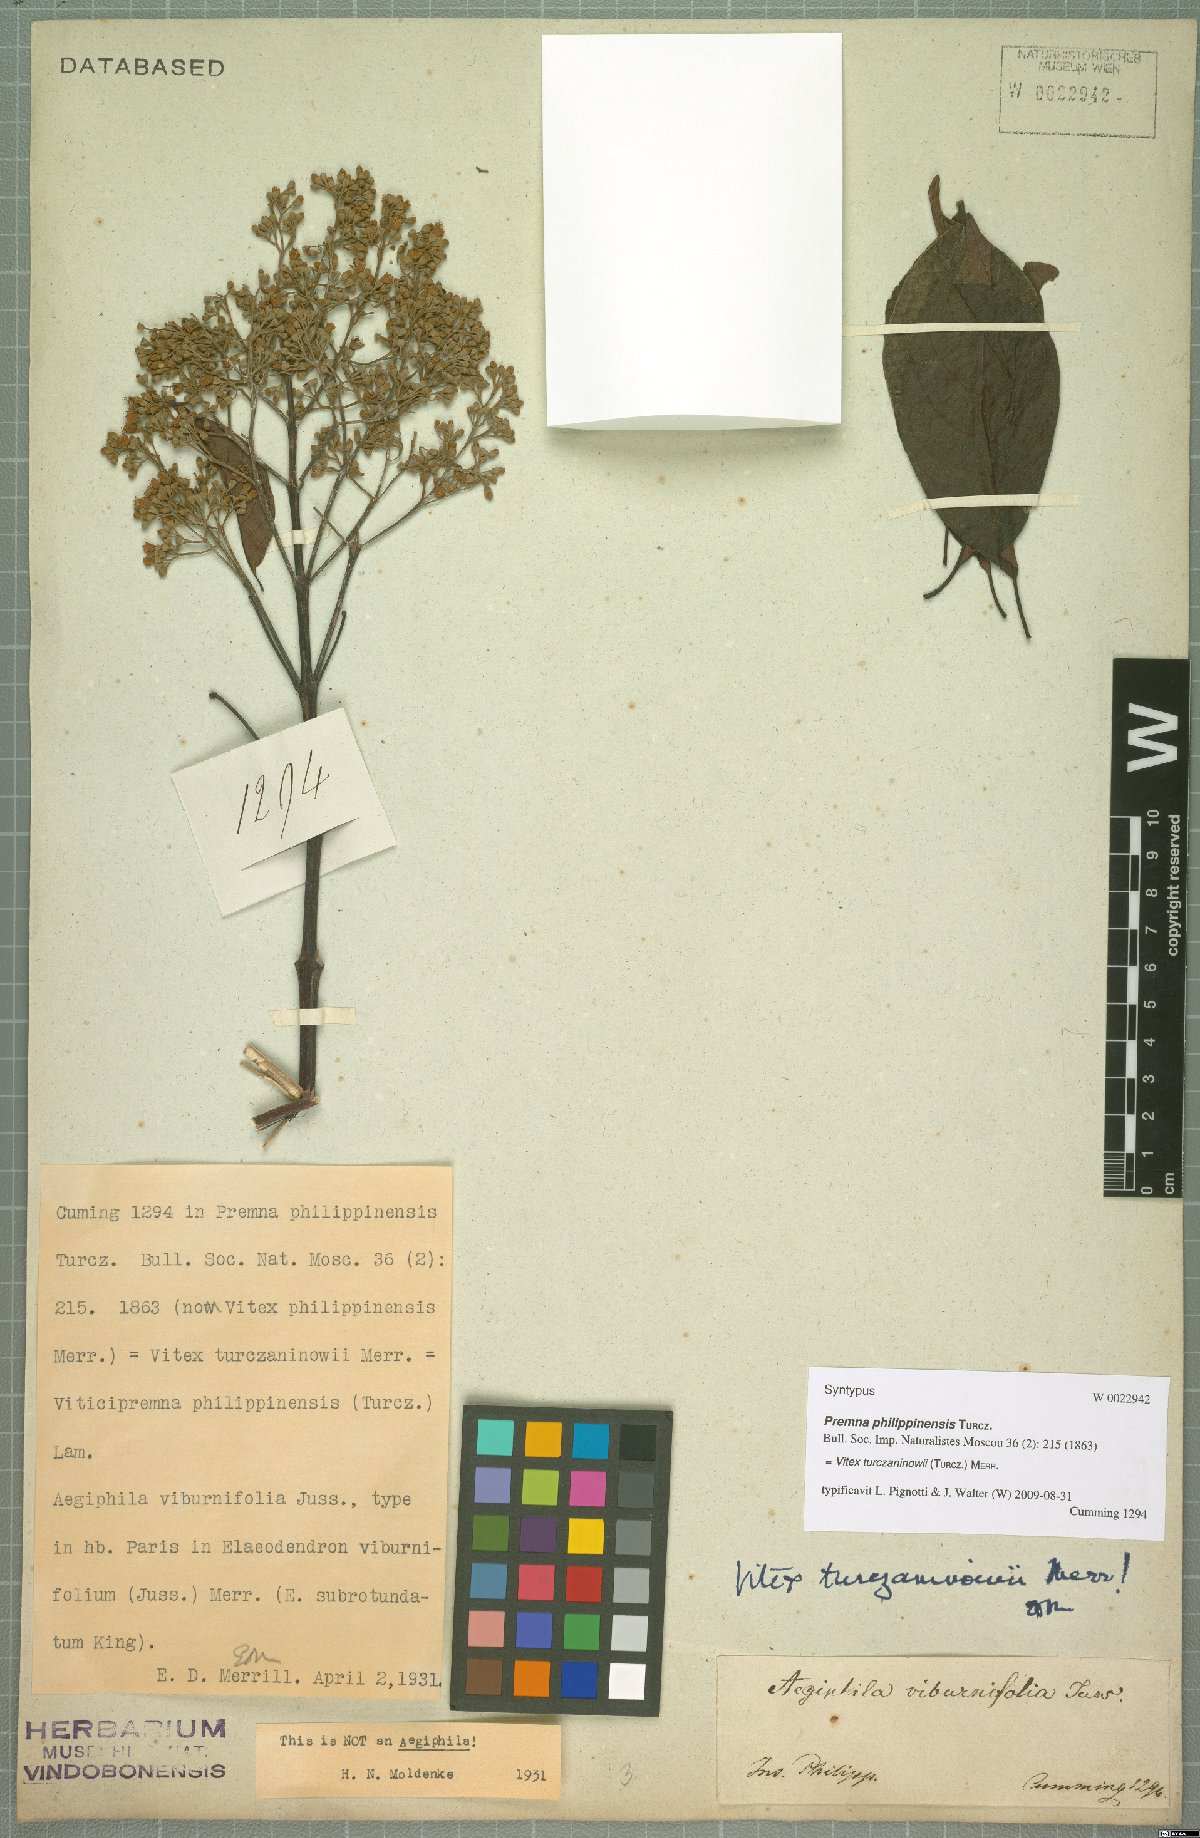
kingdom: Plantae
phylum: Tracheophyta
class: Magnoliopsida
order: Lamiales
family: Lamiaceae
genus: Vitex
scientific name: Vitex turczaninowii
